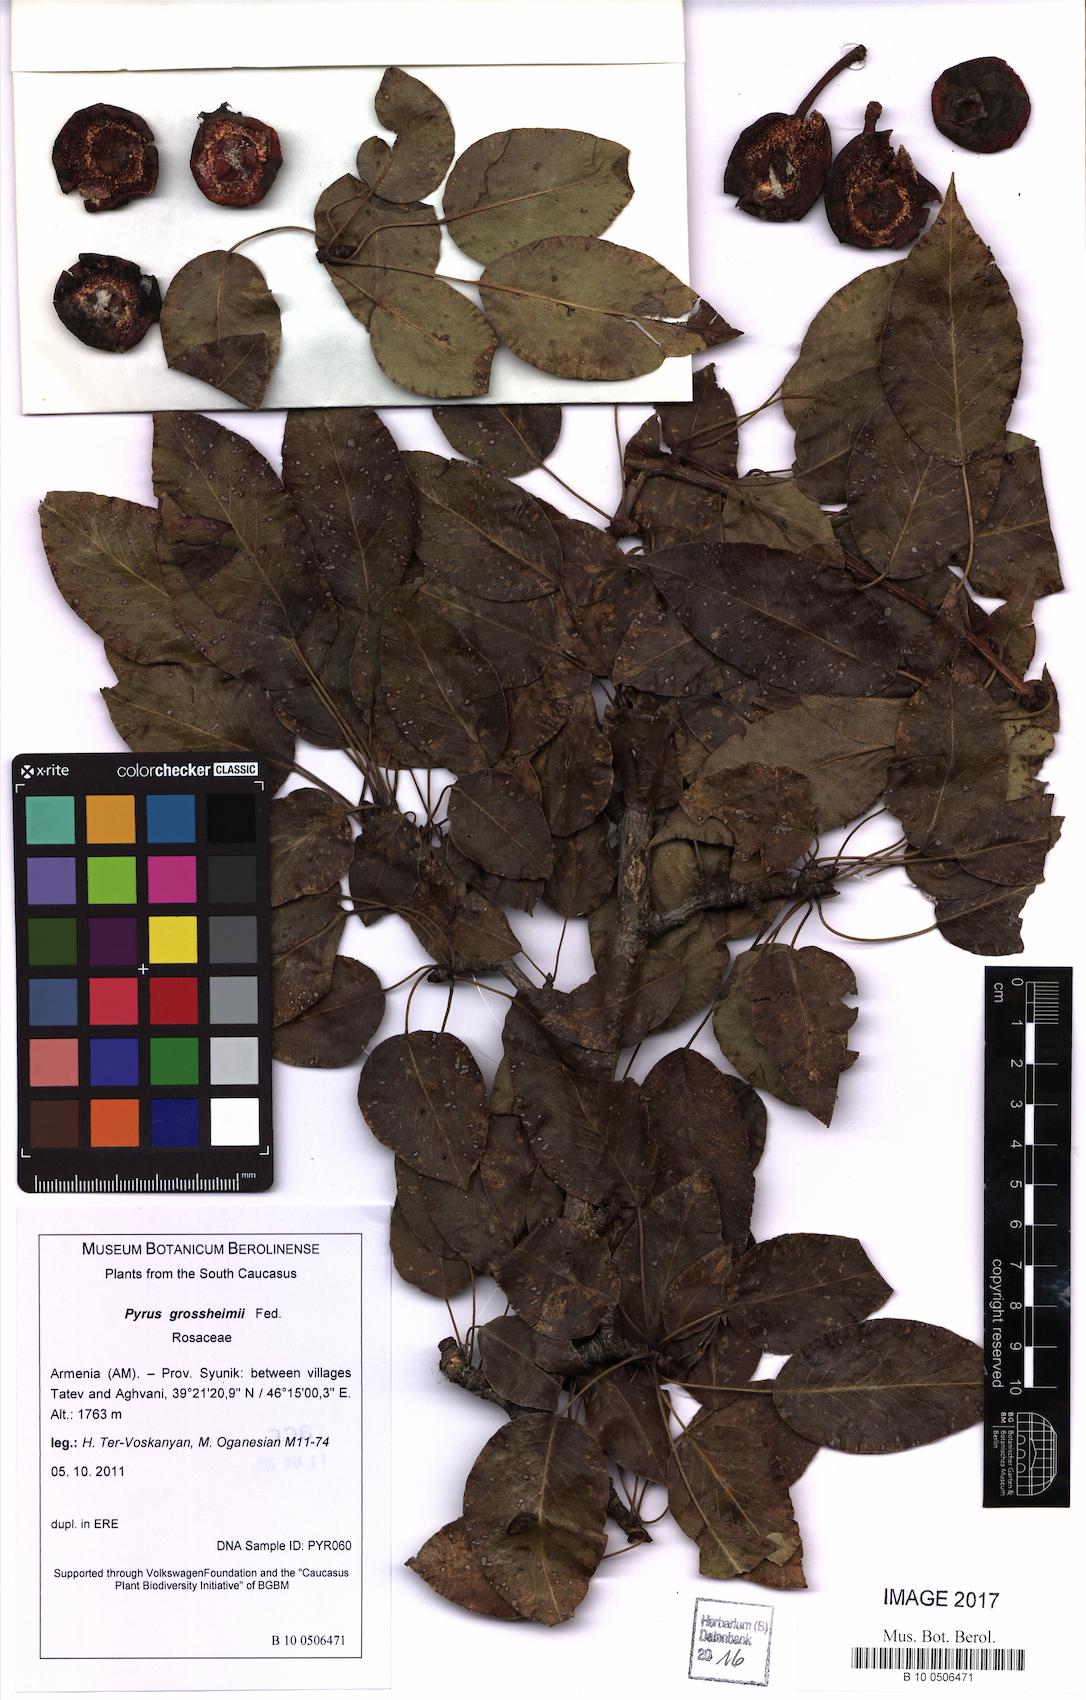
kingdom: Plantae
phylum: Tracheophyta
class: Magnoliopsida
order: Rosales
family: Rosaceae
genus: Pyrus
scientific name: Pyrus grossheimii
